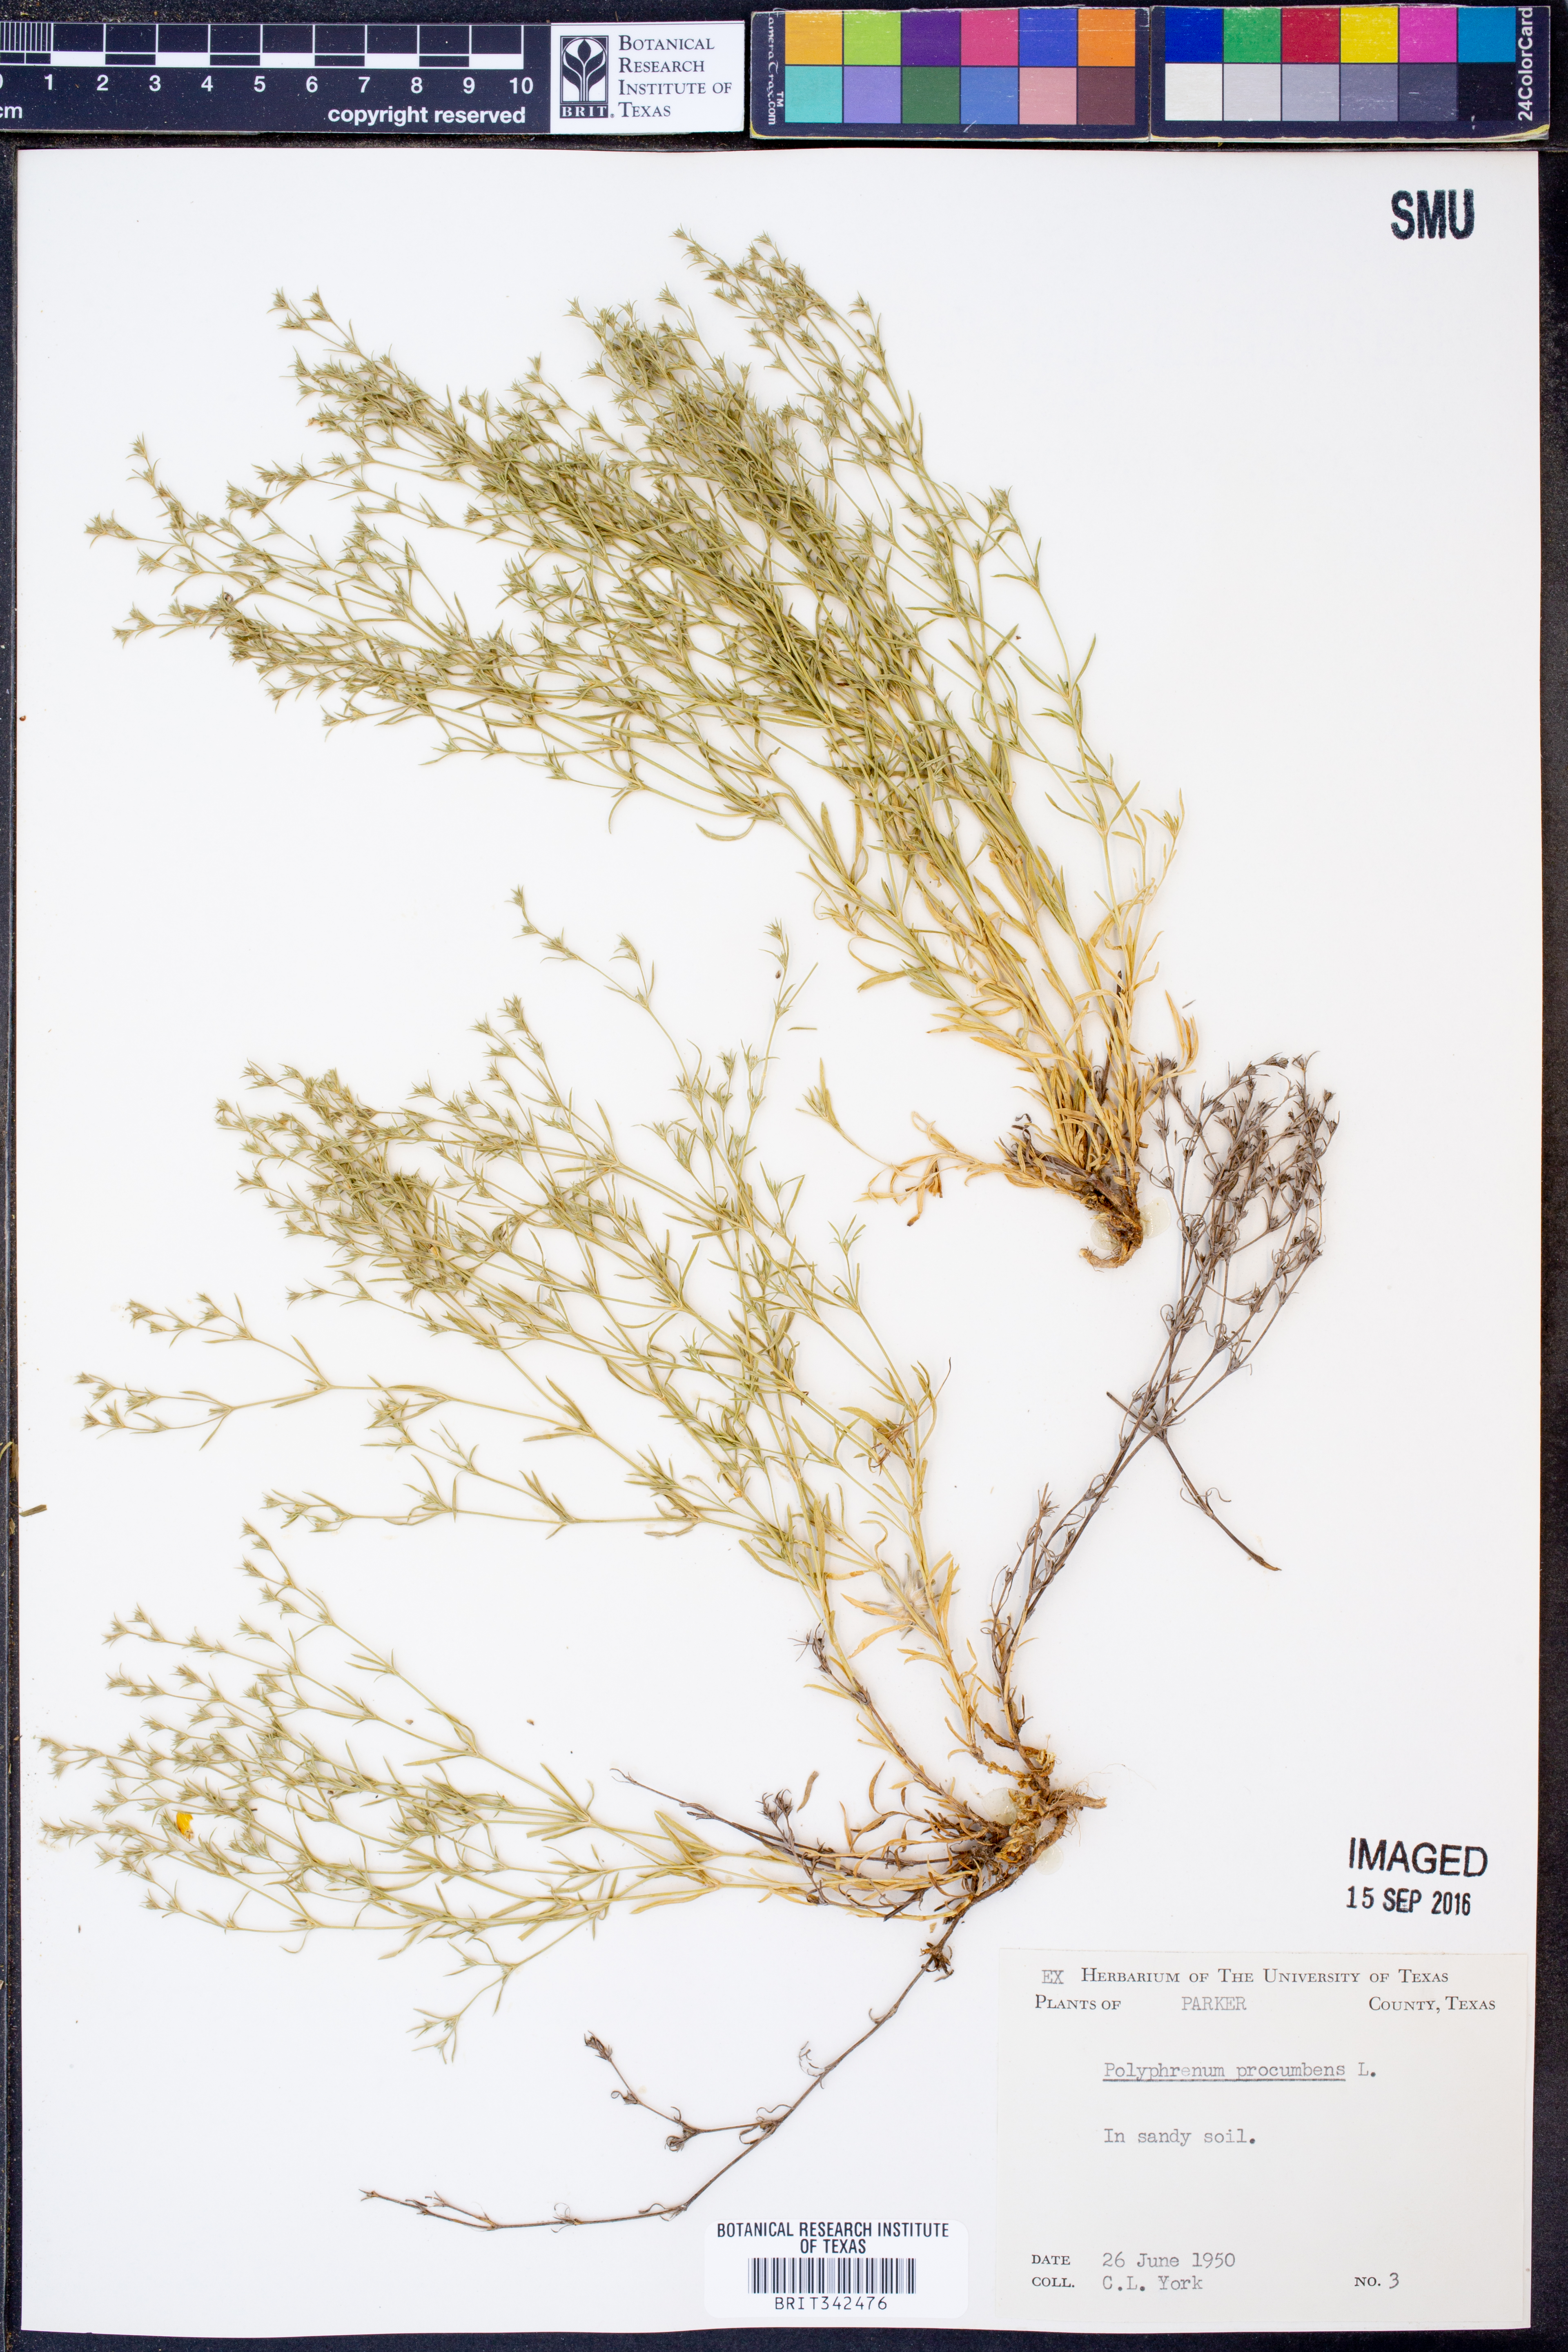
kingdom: Plantae
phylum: Tracheophyta
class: Magnoliopsida
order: Lamiales
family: Tetrachondraceae
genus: Polypremum
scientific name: Polypremum procumbens
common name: Juniper-leaf
